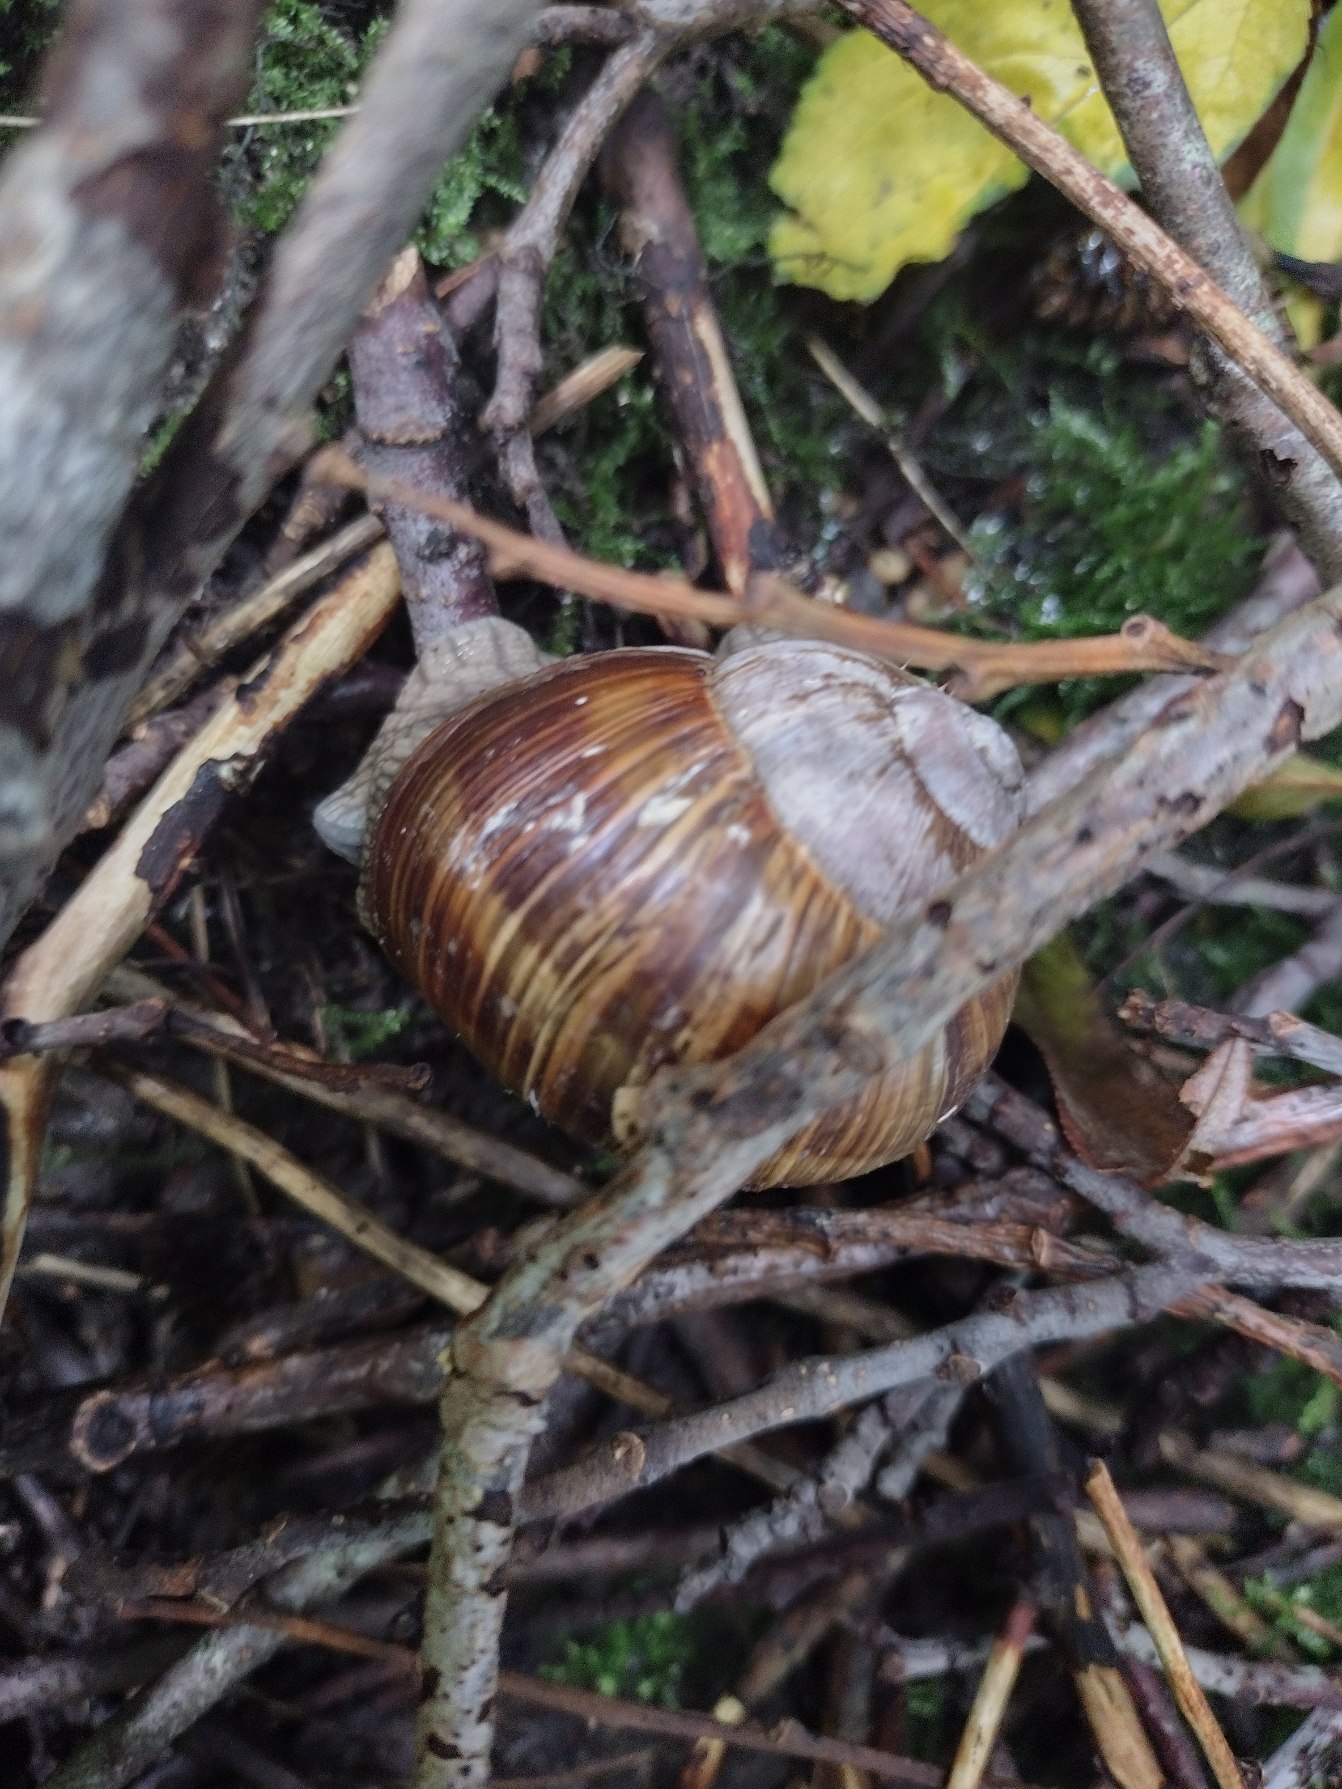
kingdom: Animalia
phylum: Mollusca
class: Gastropoda
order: Stylommatophora
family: Helicidae
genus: Helix
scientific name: Helix pomatia
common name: Vinbjergsnegl
